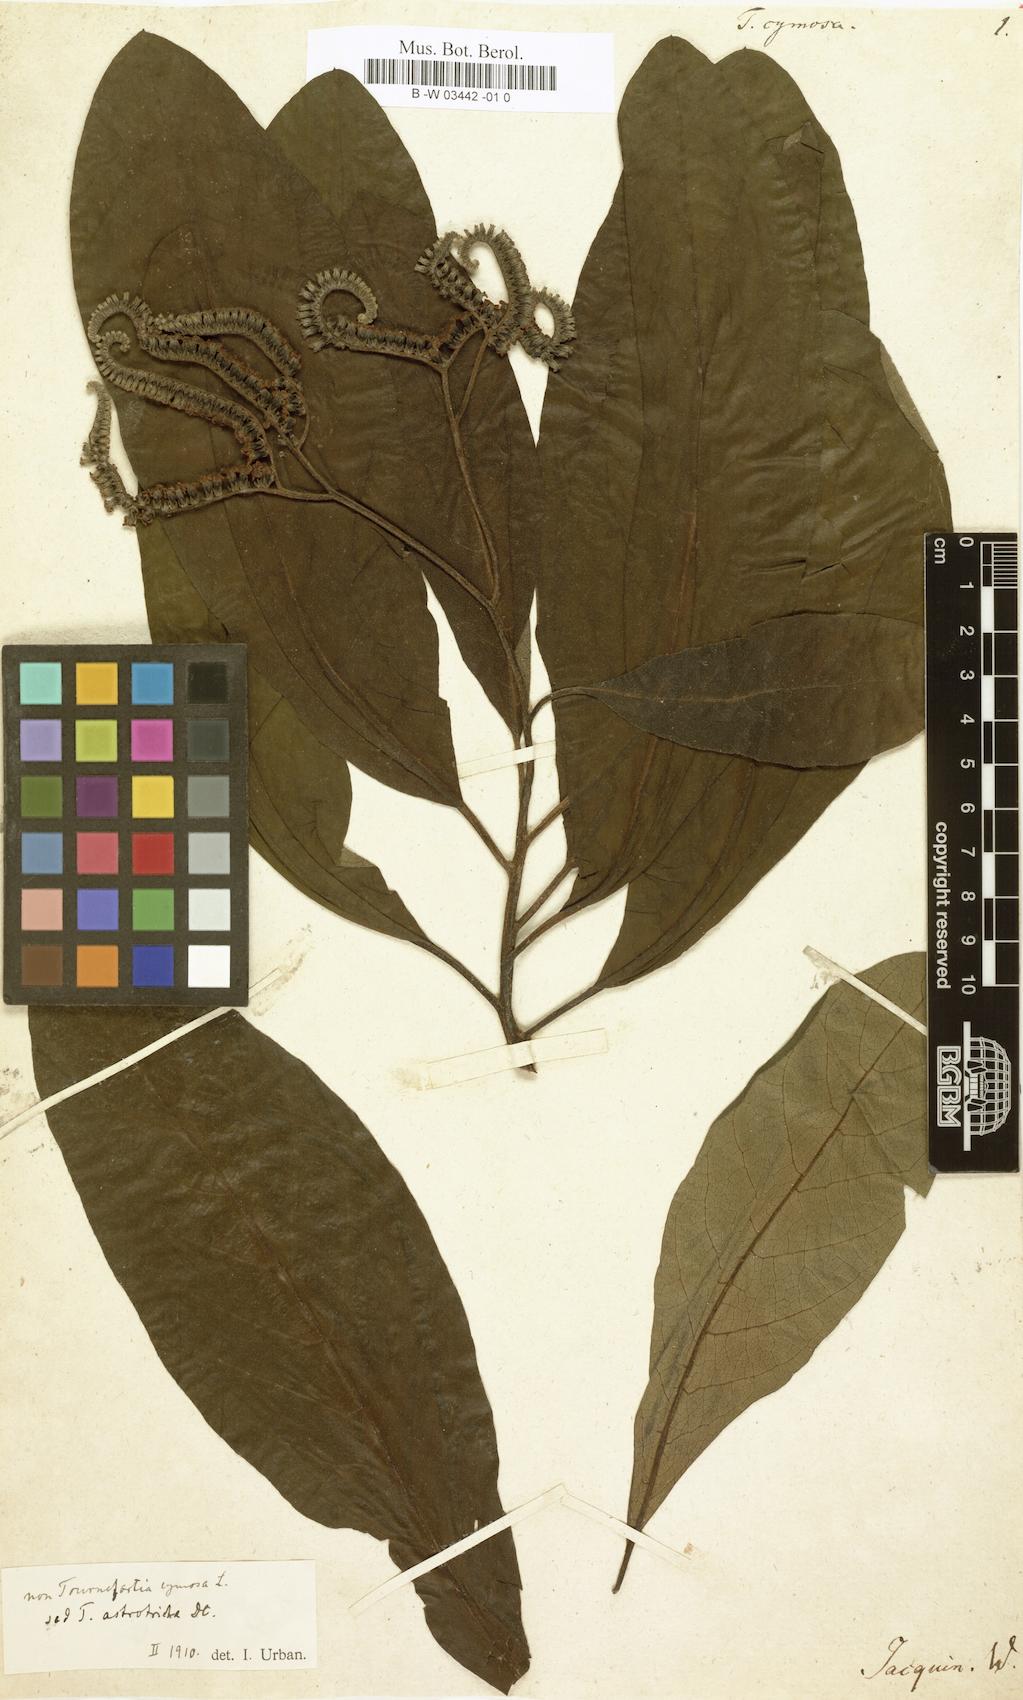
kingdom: Plantae
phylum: Tracheophyta
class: Magnoliopsida
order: Boraginales
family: Heliotropiaceae
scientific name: Heliotropiaceae
